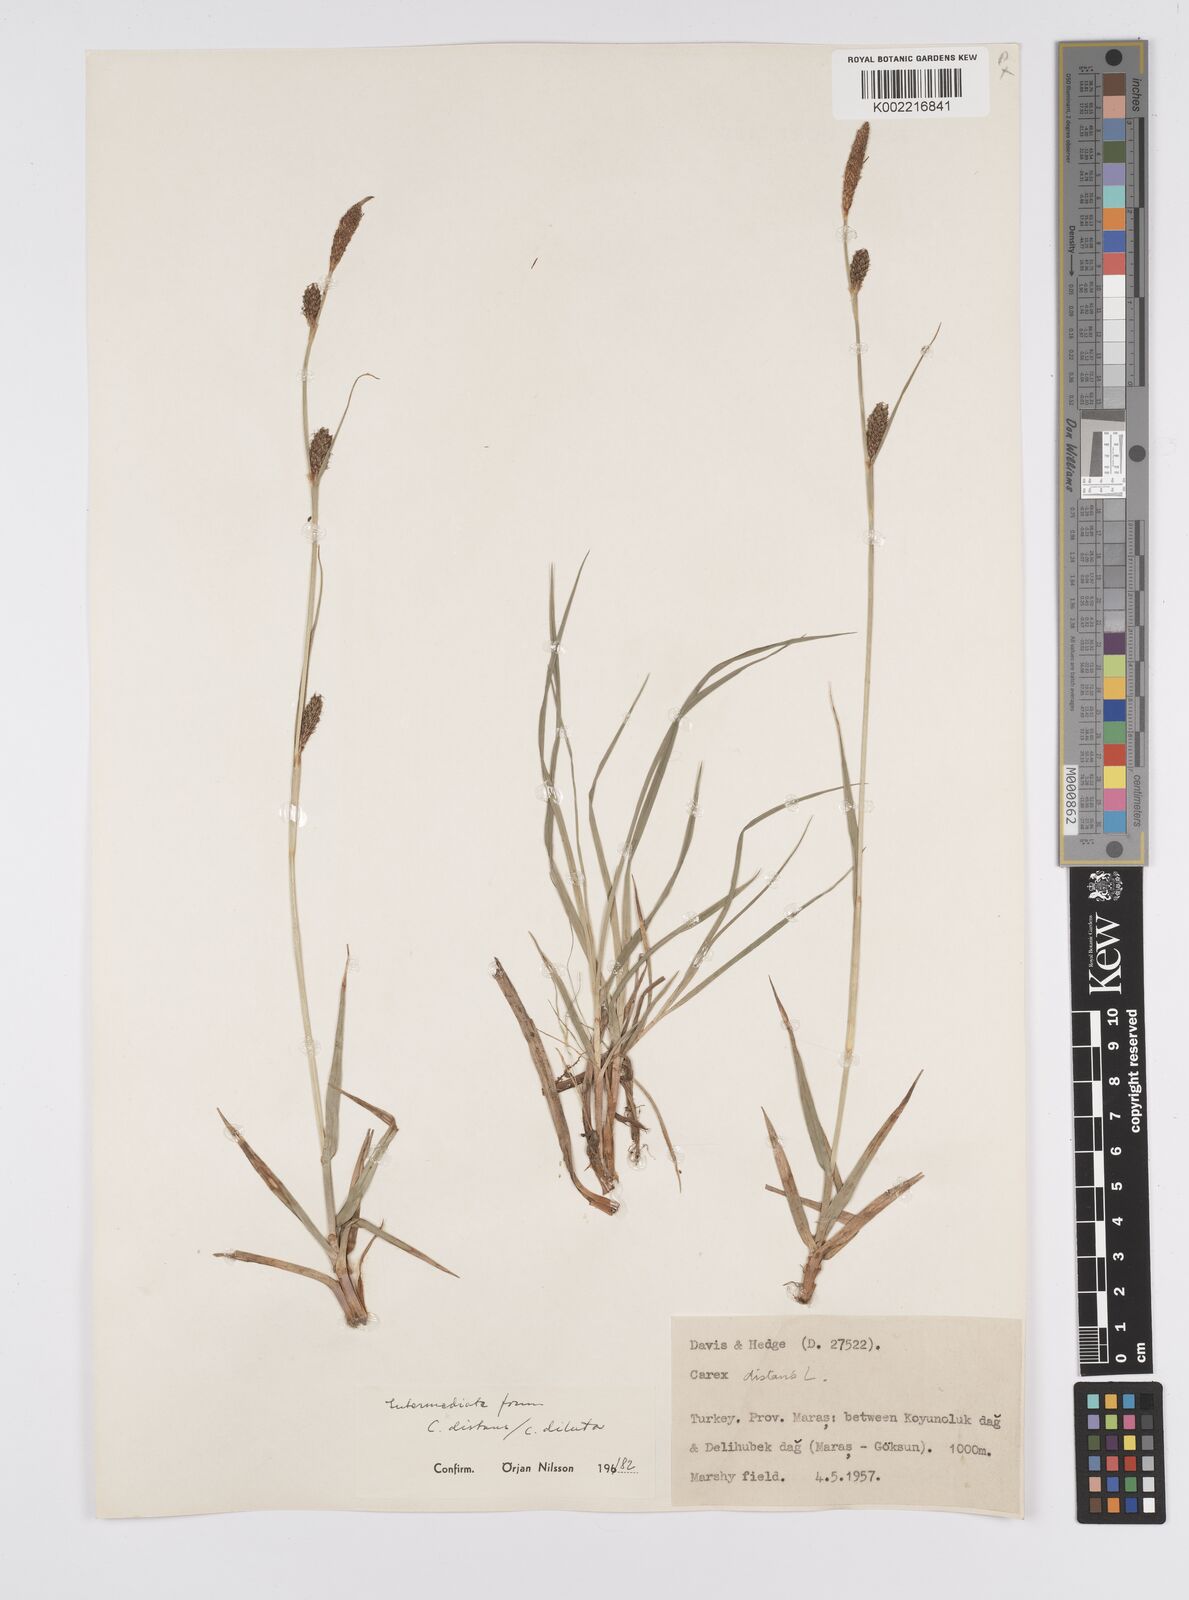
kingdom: Plantae
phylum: Tracheophyta
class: Liliopsida
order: Poales
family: Cyperaceae
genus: Carex
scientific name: Carex diluta
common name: Sedge
